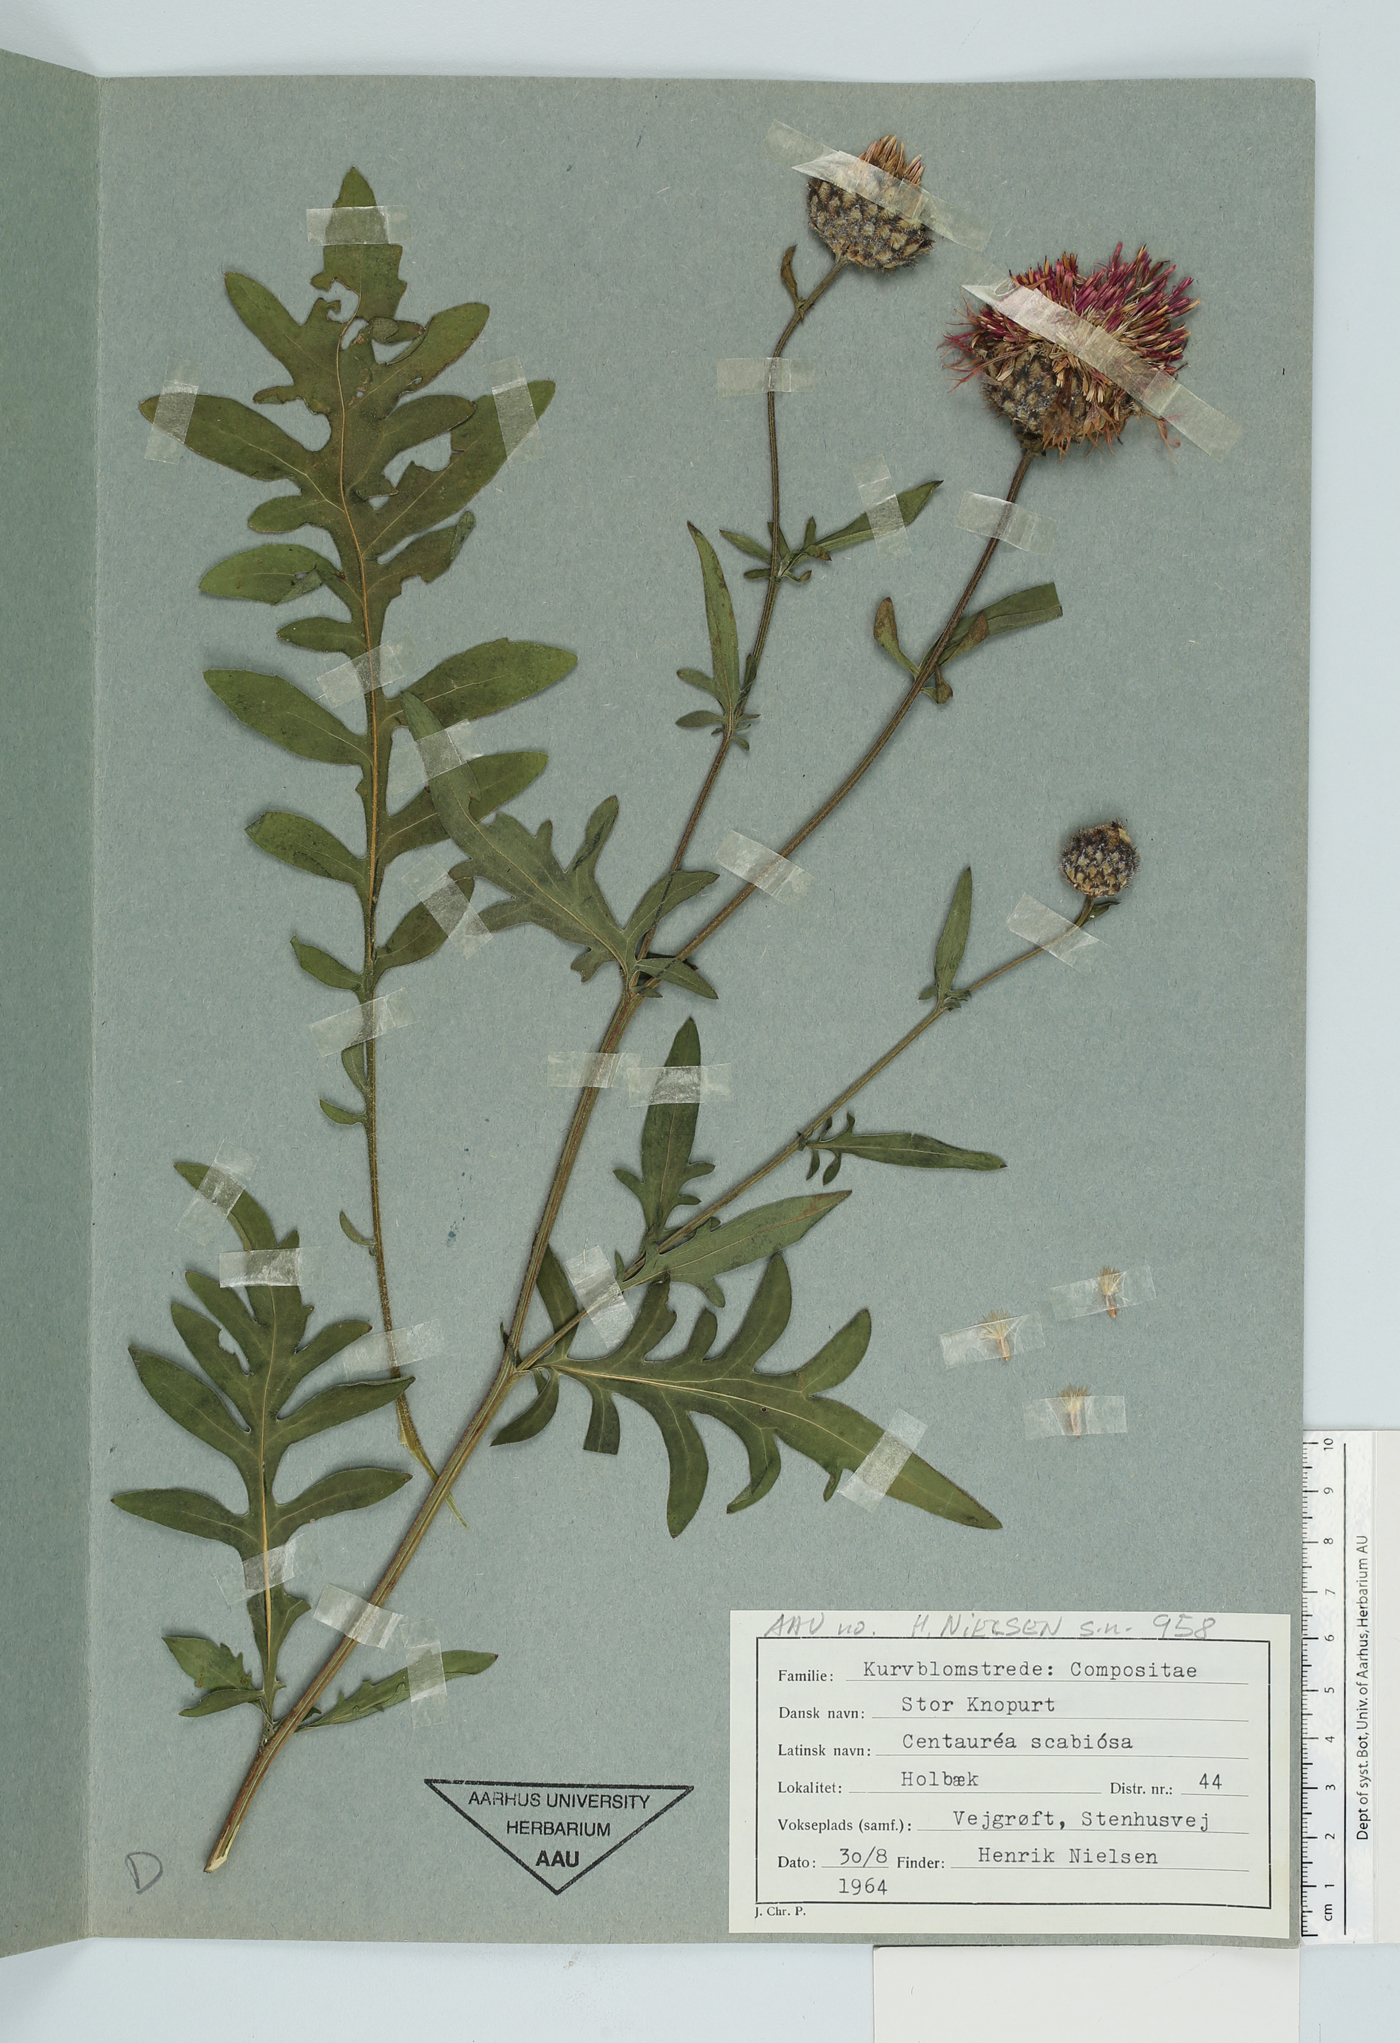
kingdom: Plantae
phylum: Tracheophyta
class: Magnoliopsida
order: Asterales
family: Asteraceae
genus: Centaurea
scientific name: Centaurea scabiosa
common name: Greater knapweed
